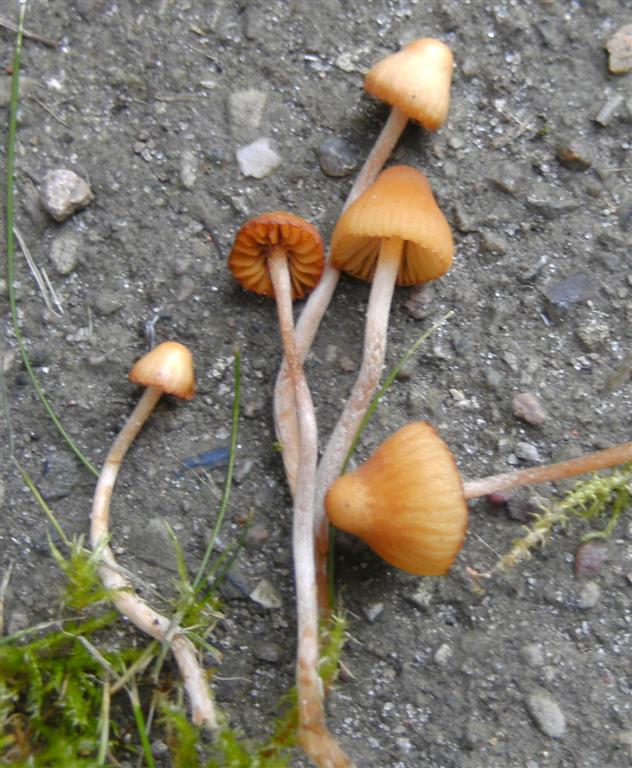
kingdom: Fungi
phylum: Basidiomycota
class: Agaricomycetes
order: Agaricales
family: Hymenogastraceae
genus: Galerina
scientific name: Galerina clavata
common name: kær-hjelmhat
